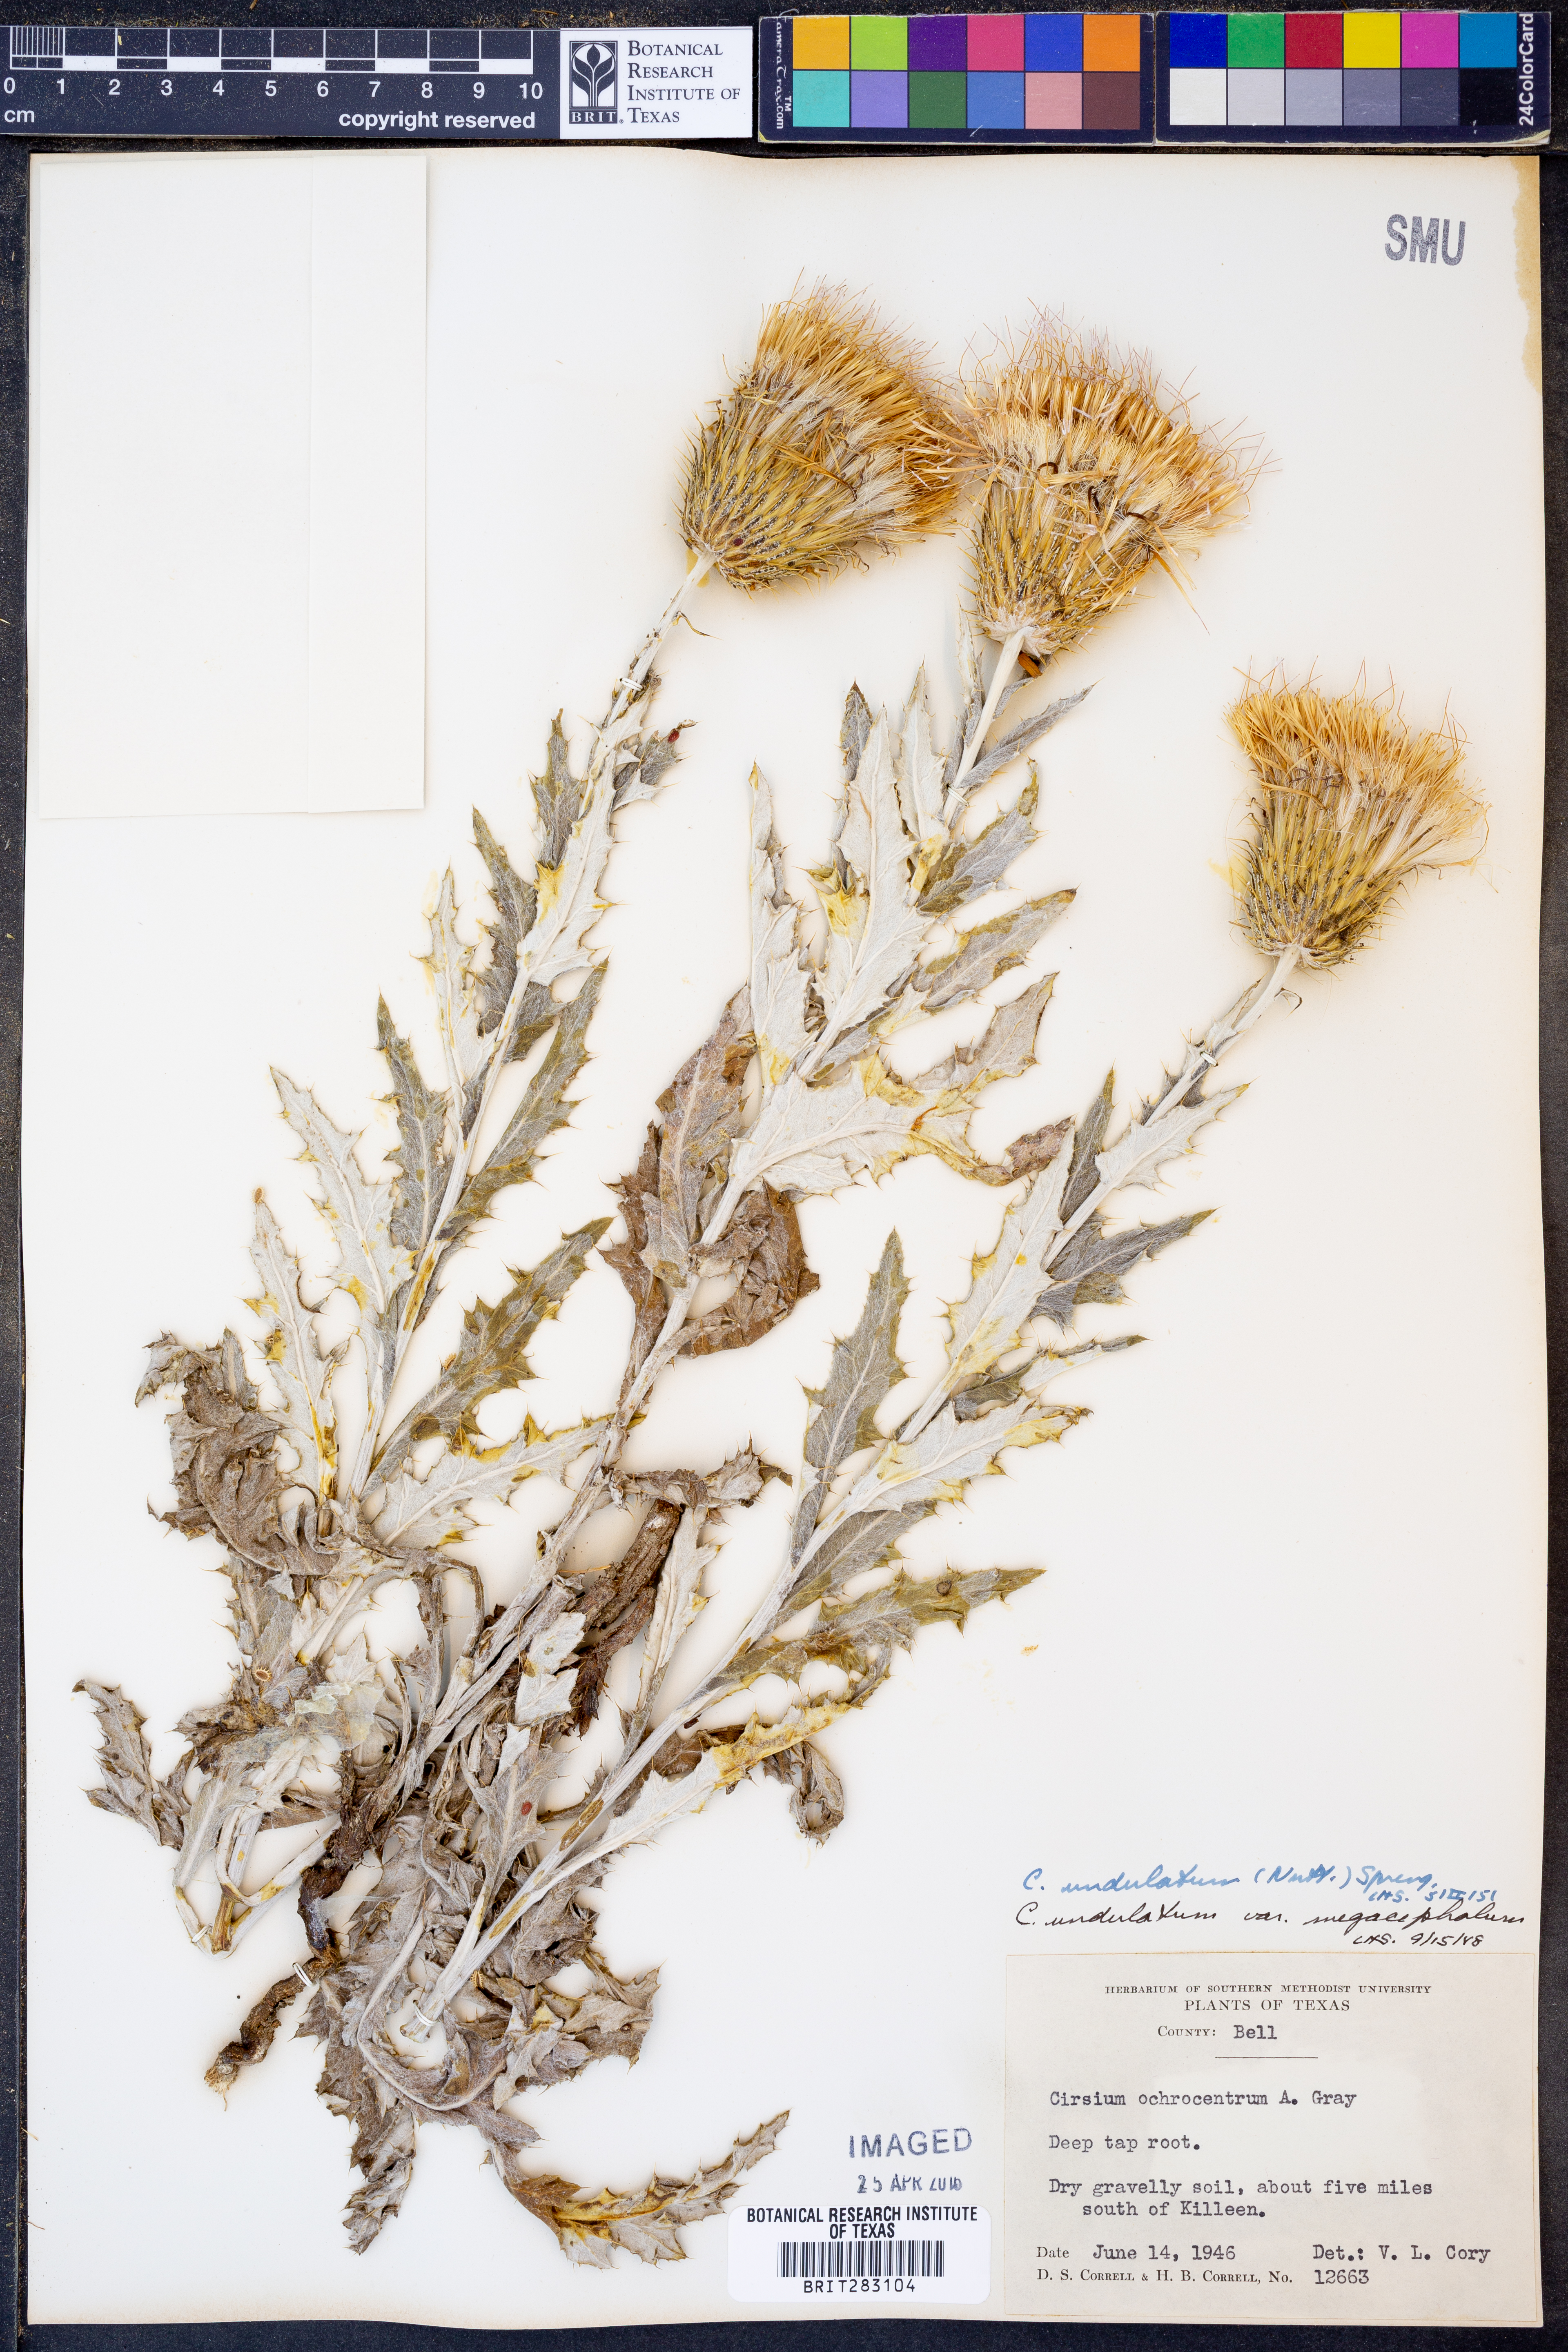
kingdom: Plantae
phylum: Tracheophyta
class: Magnoliopsida
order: Asterales
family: Asteraceae
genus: Cirsium
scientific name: Cirsium undulatum
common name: Pasture thistle
